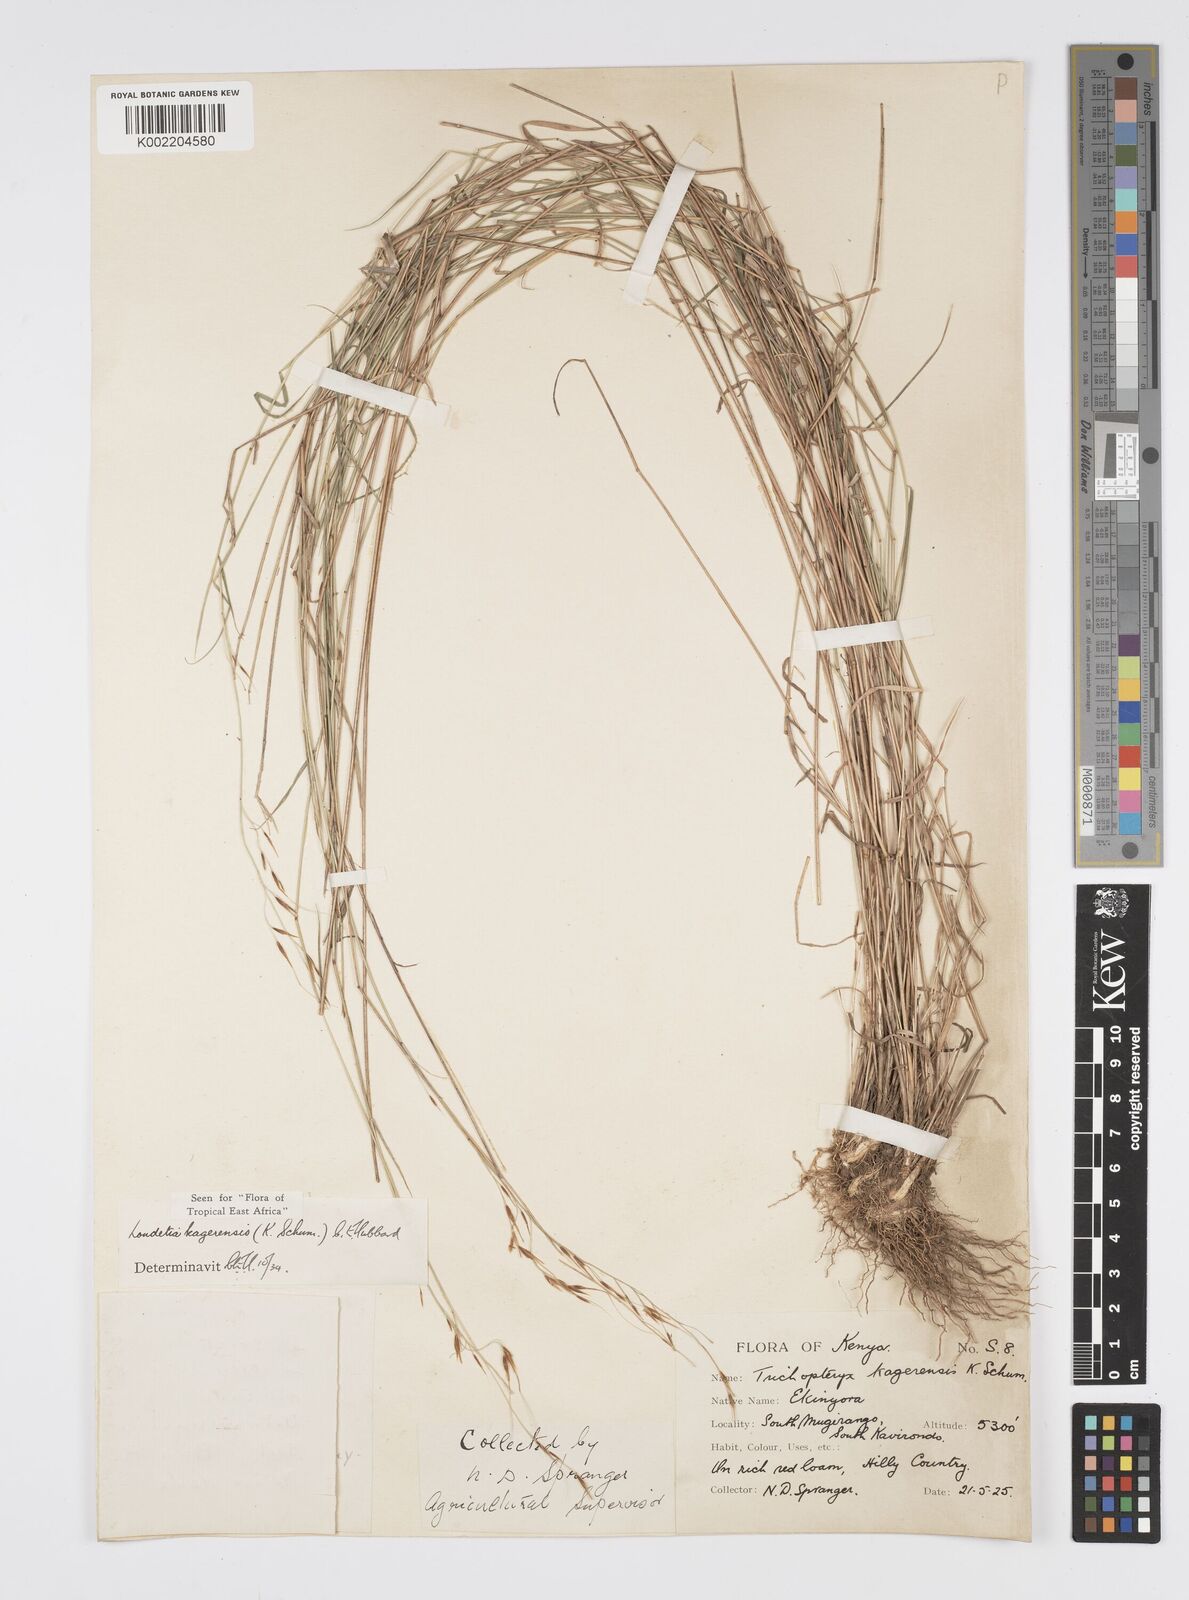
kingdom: Plantae
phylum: Tracheophyta
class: Liliopsida
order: Poales
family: Poaceae
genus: Loudetia
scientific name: Loudetia kagerensis
